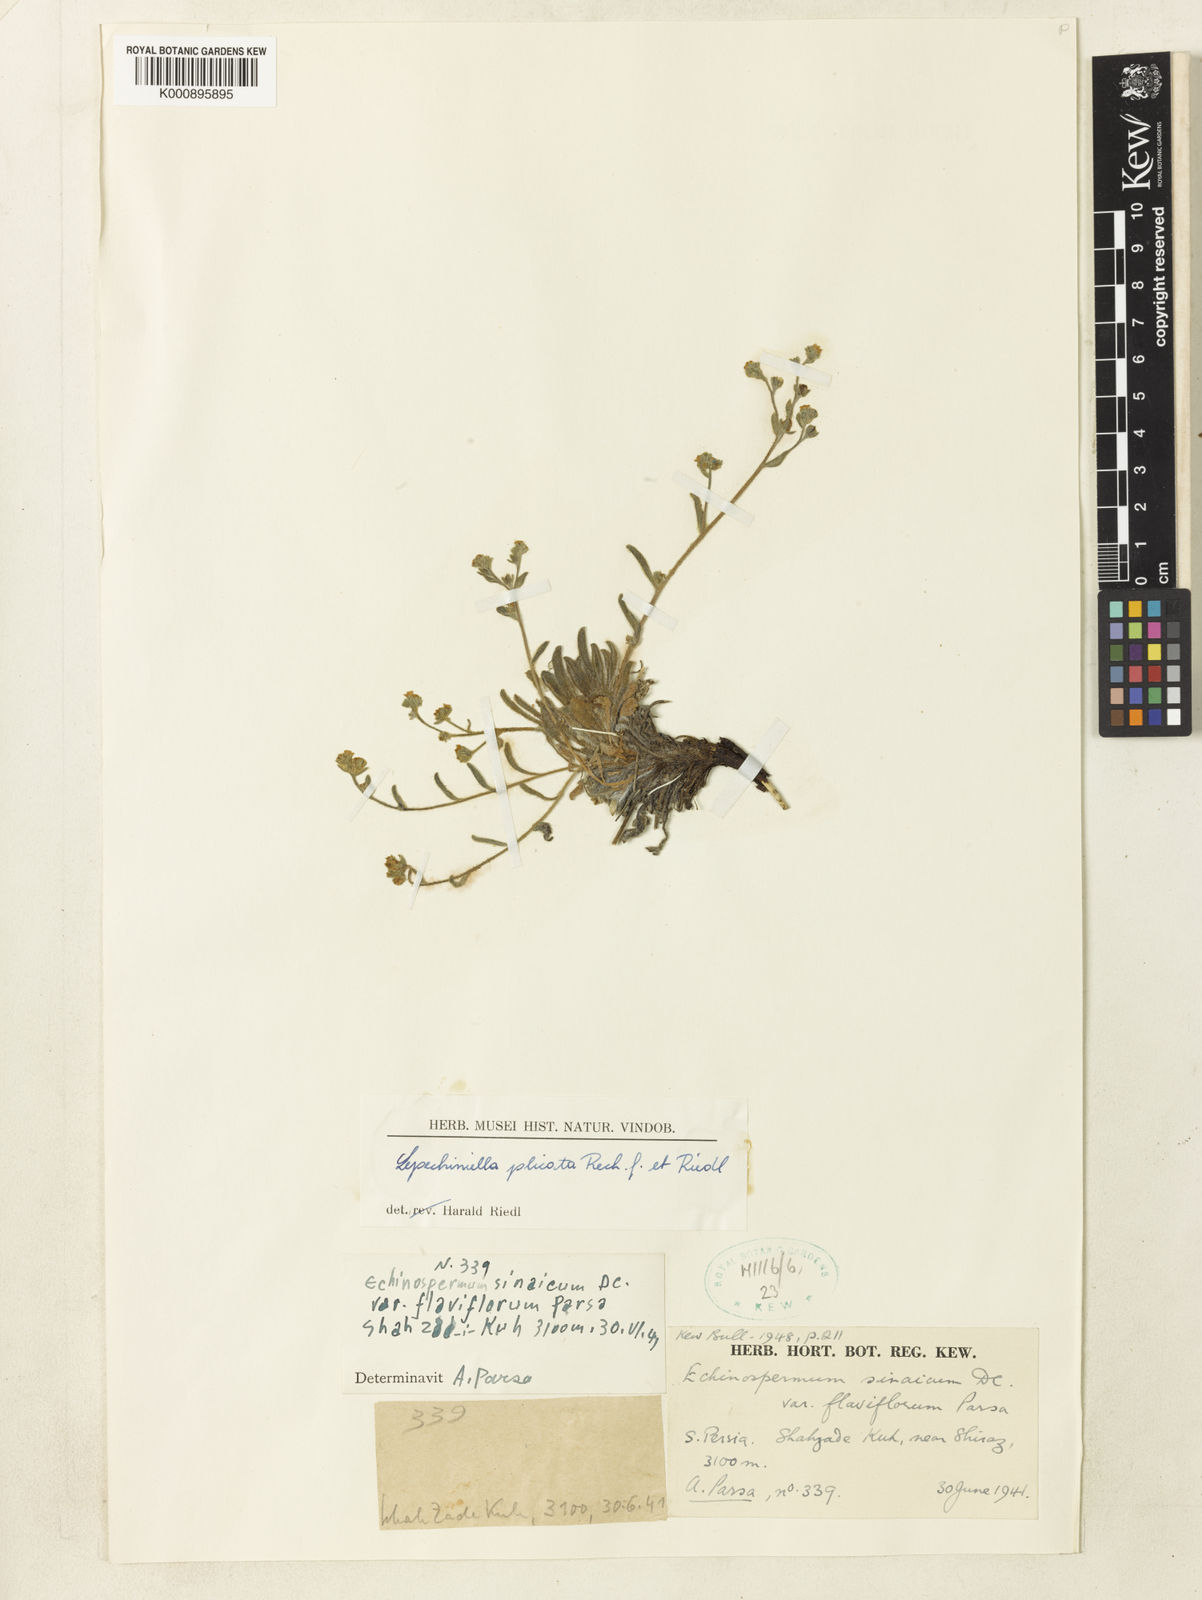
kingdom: Plantae
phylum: Tracheophyta
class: Magnoliopsida
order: Boraginales
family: Boraginaceae
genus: Lepechiniella
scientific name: Lepechiniella persica
